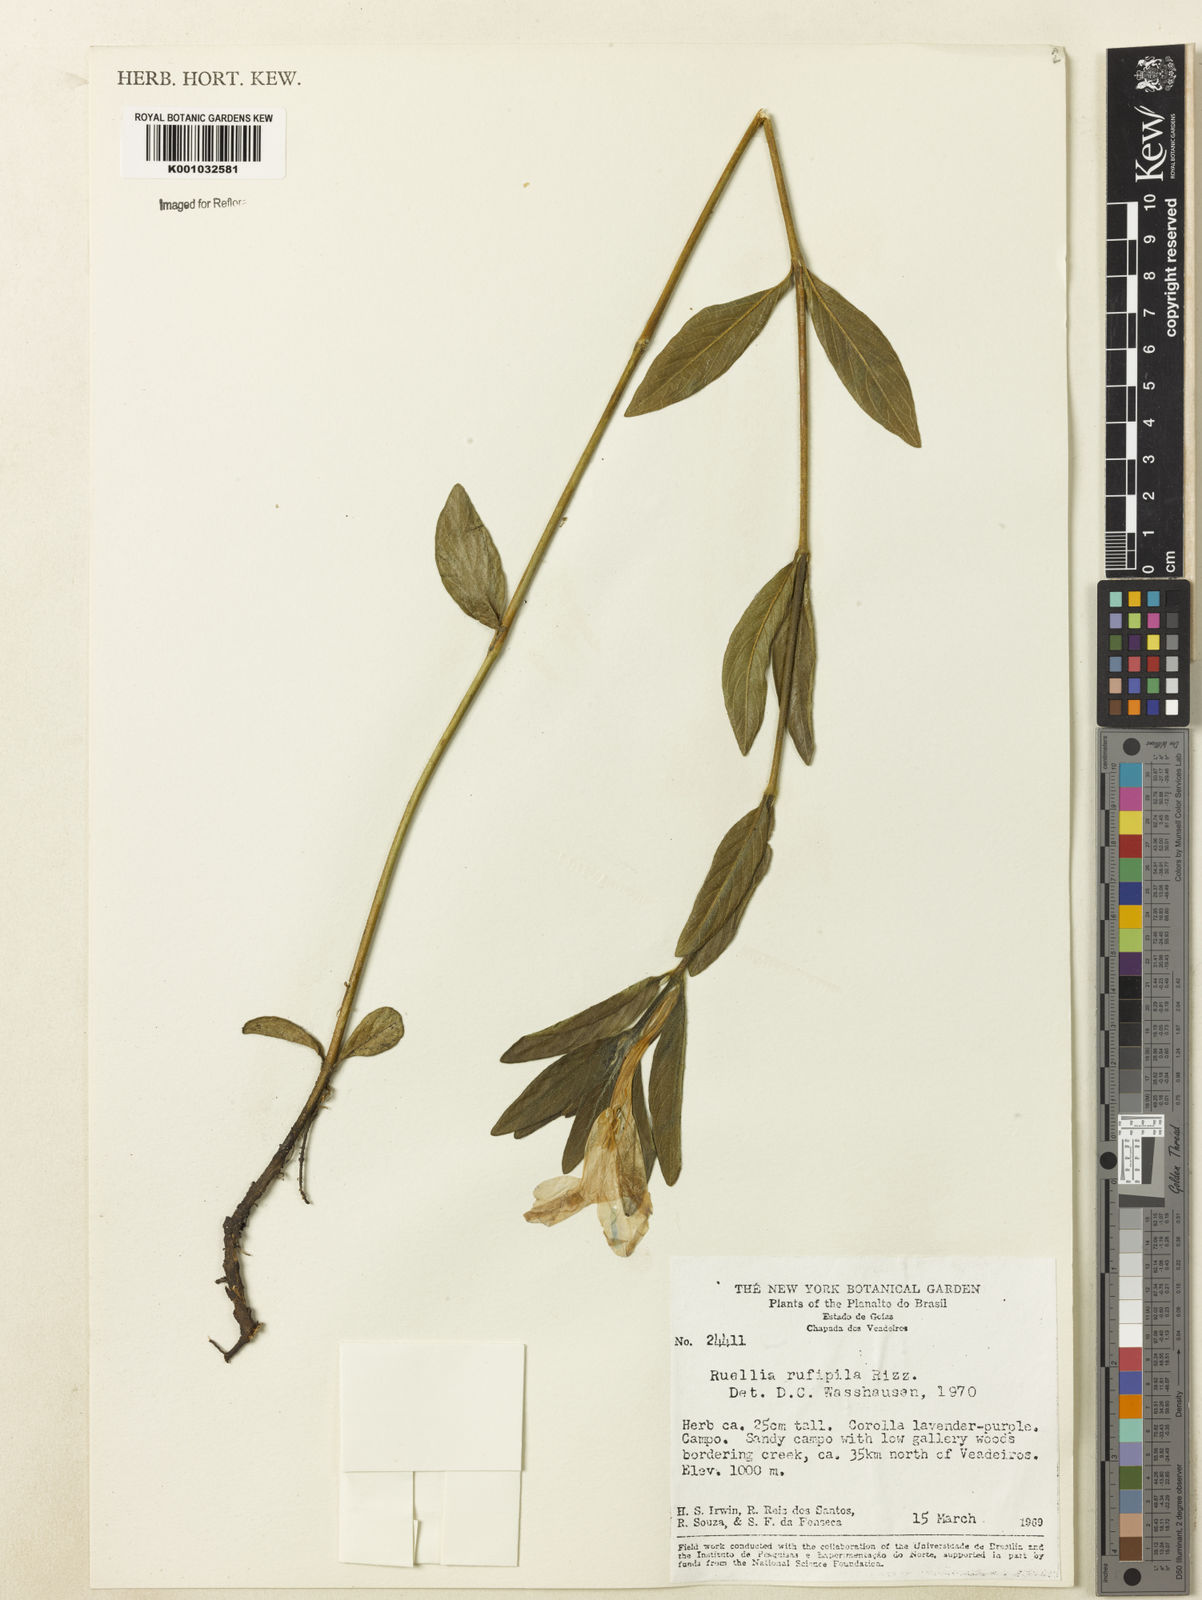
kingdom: Plantae
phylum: Tracheophyta
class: Magnoliopsida
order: Lamiales
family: Acanthaceae
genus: Ruellia
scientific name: Ruellia rufipila
